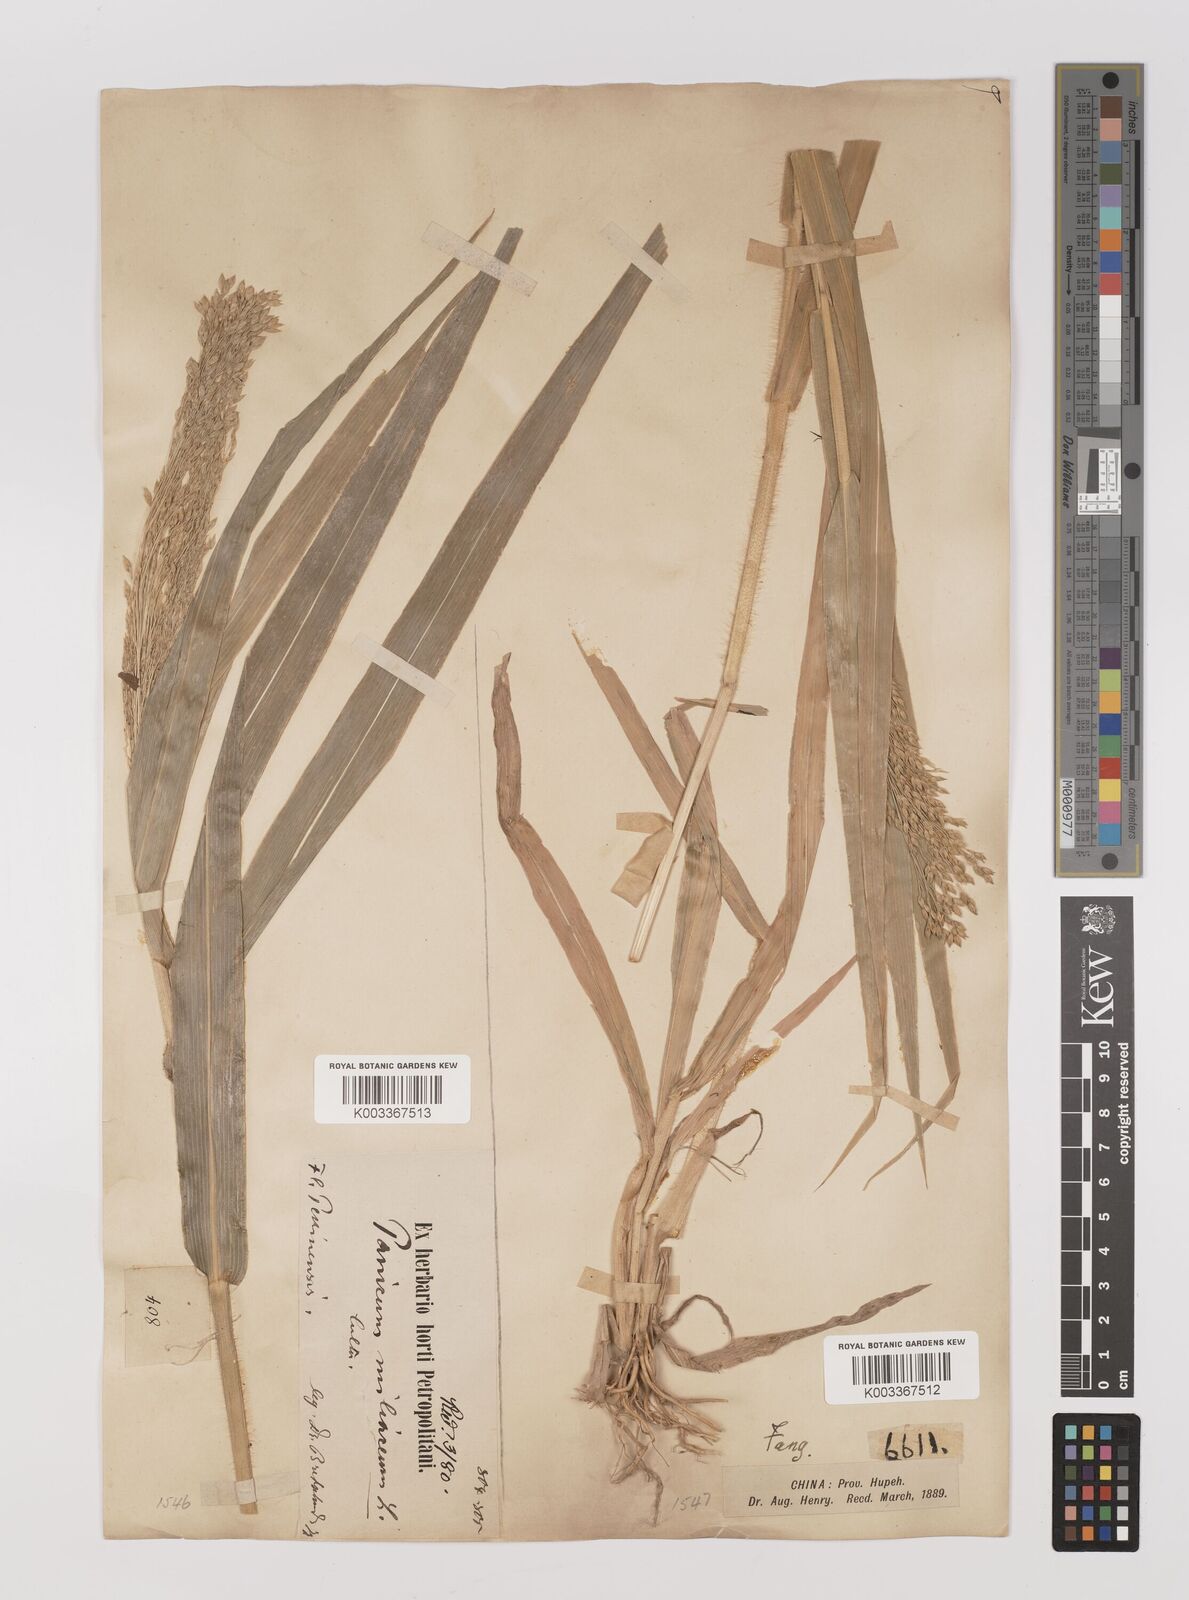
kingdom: Plantae
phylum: Tracheophyta
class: Liliopsida
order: Poales
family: Poaceae
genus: Panicum
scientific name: Panicum miliaceum
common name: Common millet
